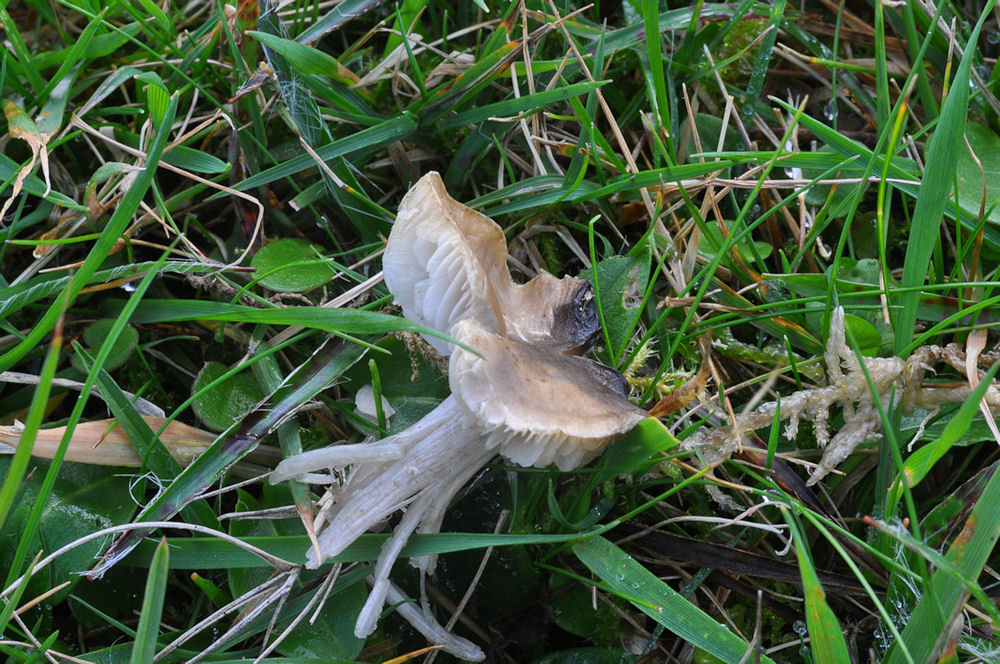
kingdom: Fungi
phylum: Basidiomycota
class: Agaricomycetes
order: Agaricales
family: Hygrophoraceae
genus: Cuphophyllus
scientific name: Cuphophyllus fornicatus
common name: gråbrun vokshat
